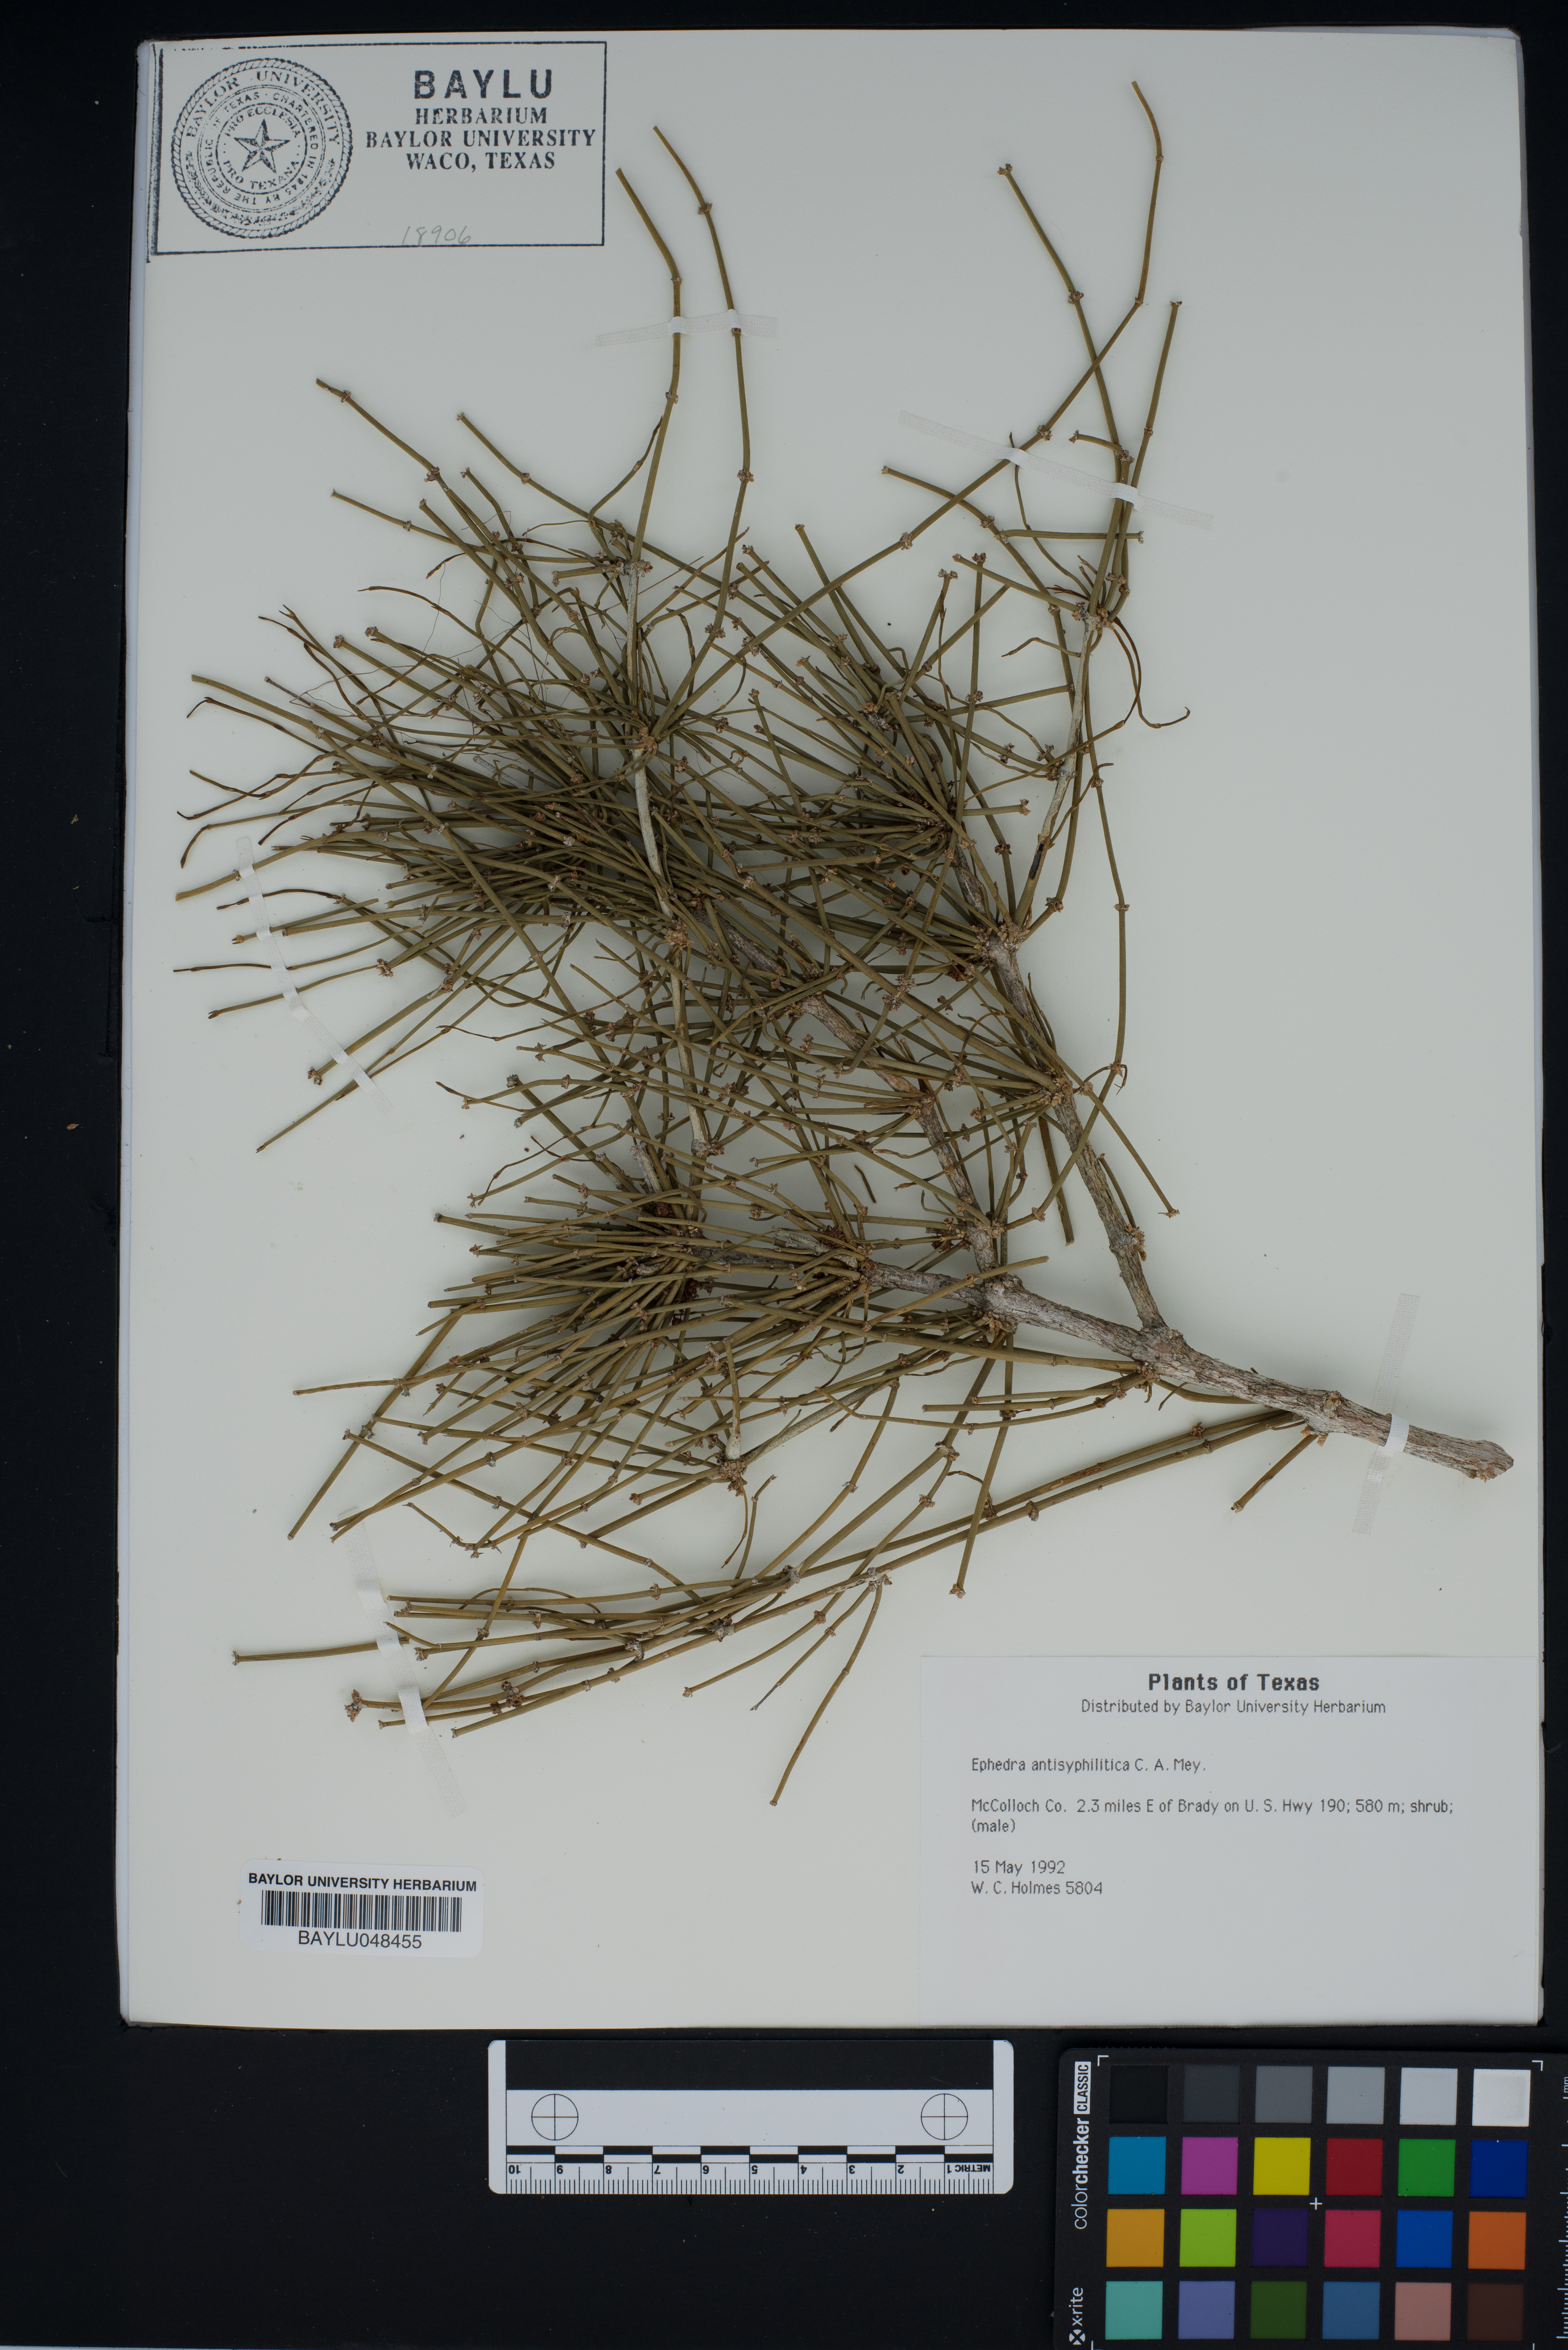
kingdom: Plantae
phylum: Tracheophyta
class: Gnetopsida
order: Ephedrales
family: Ephedraceae
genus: Ephedra
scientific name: Ephedra antisyphilitica
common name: Clipweed
